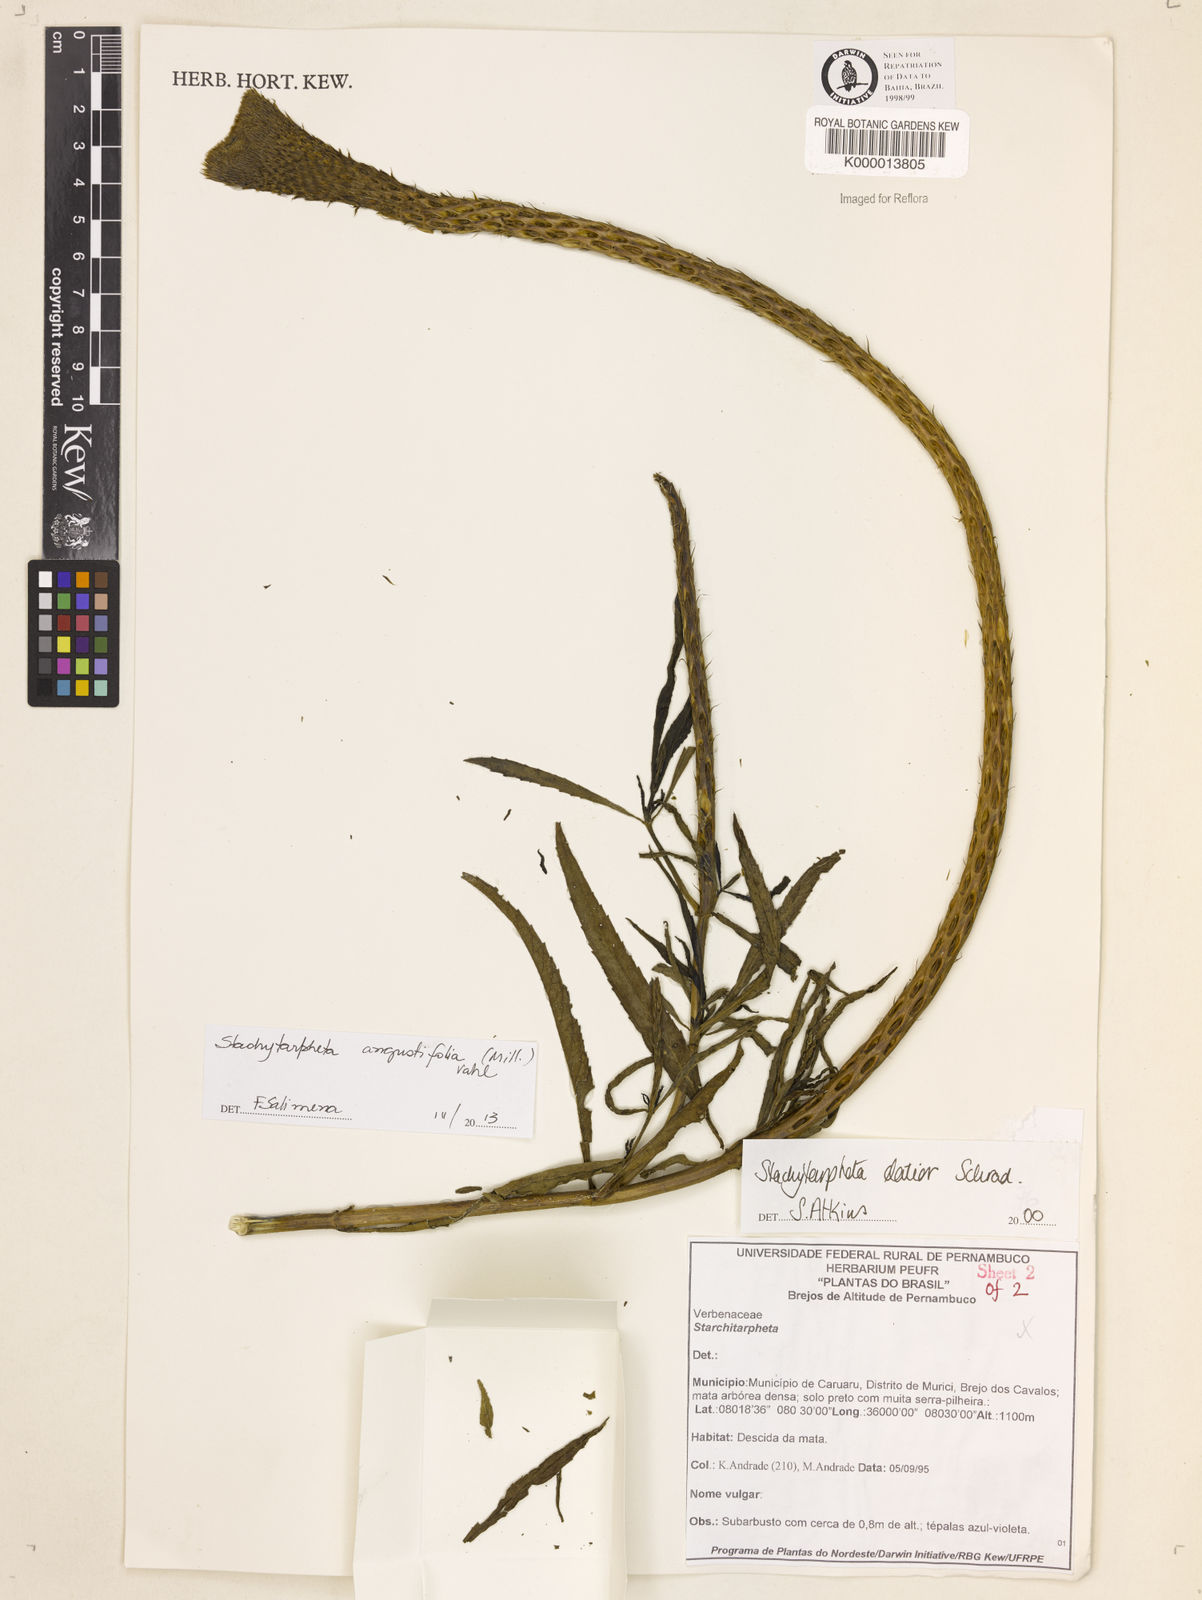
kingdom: Plantae
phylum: Tracheophyta
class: Magnoliopsida
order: Lamiales
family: Verbenaceae
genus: Stachytarpheta
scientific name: Stachytarpheta indica
